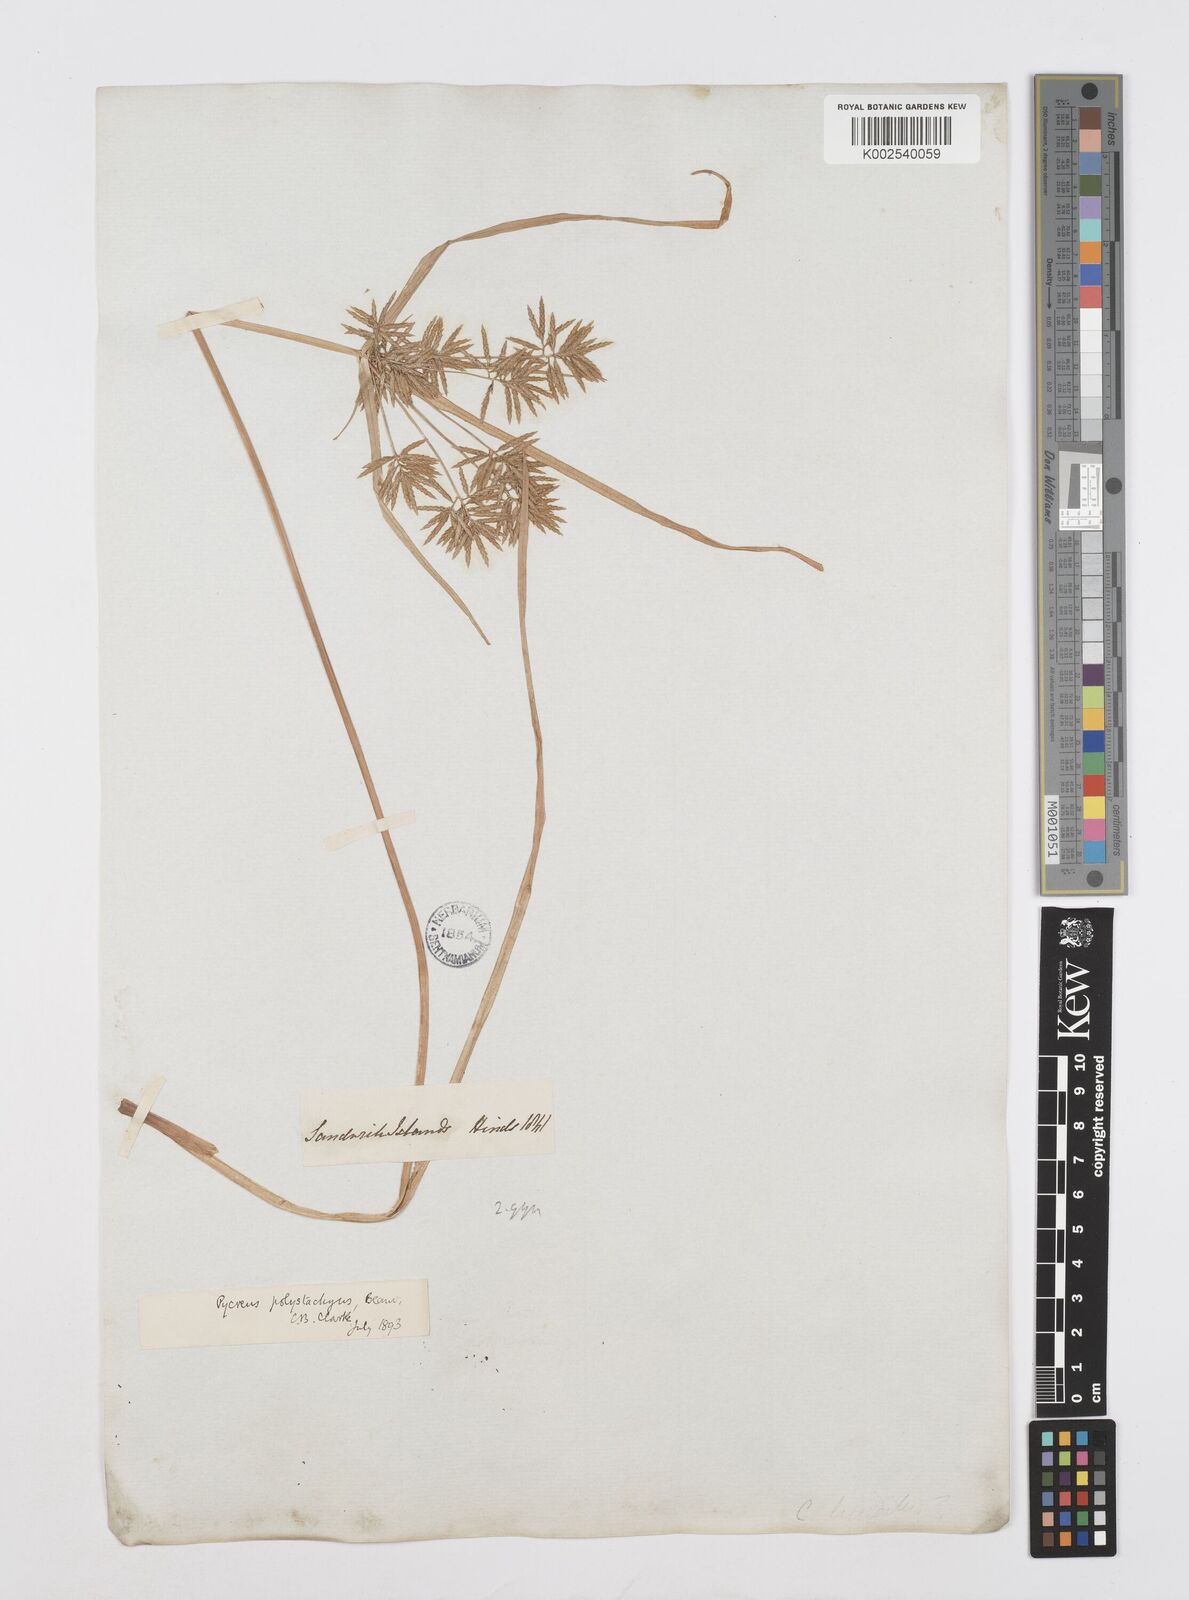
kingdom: Plantae
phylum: Tracheophyta
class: Liliopsida
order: Poales
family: Cyperaceae
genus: Cyperus
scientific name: Cyperus polystachyos
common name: Bunchy flat sedge
